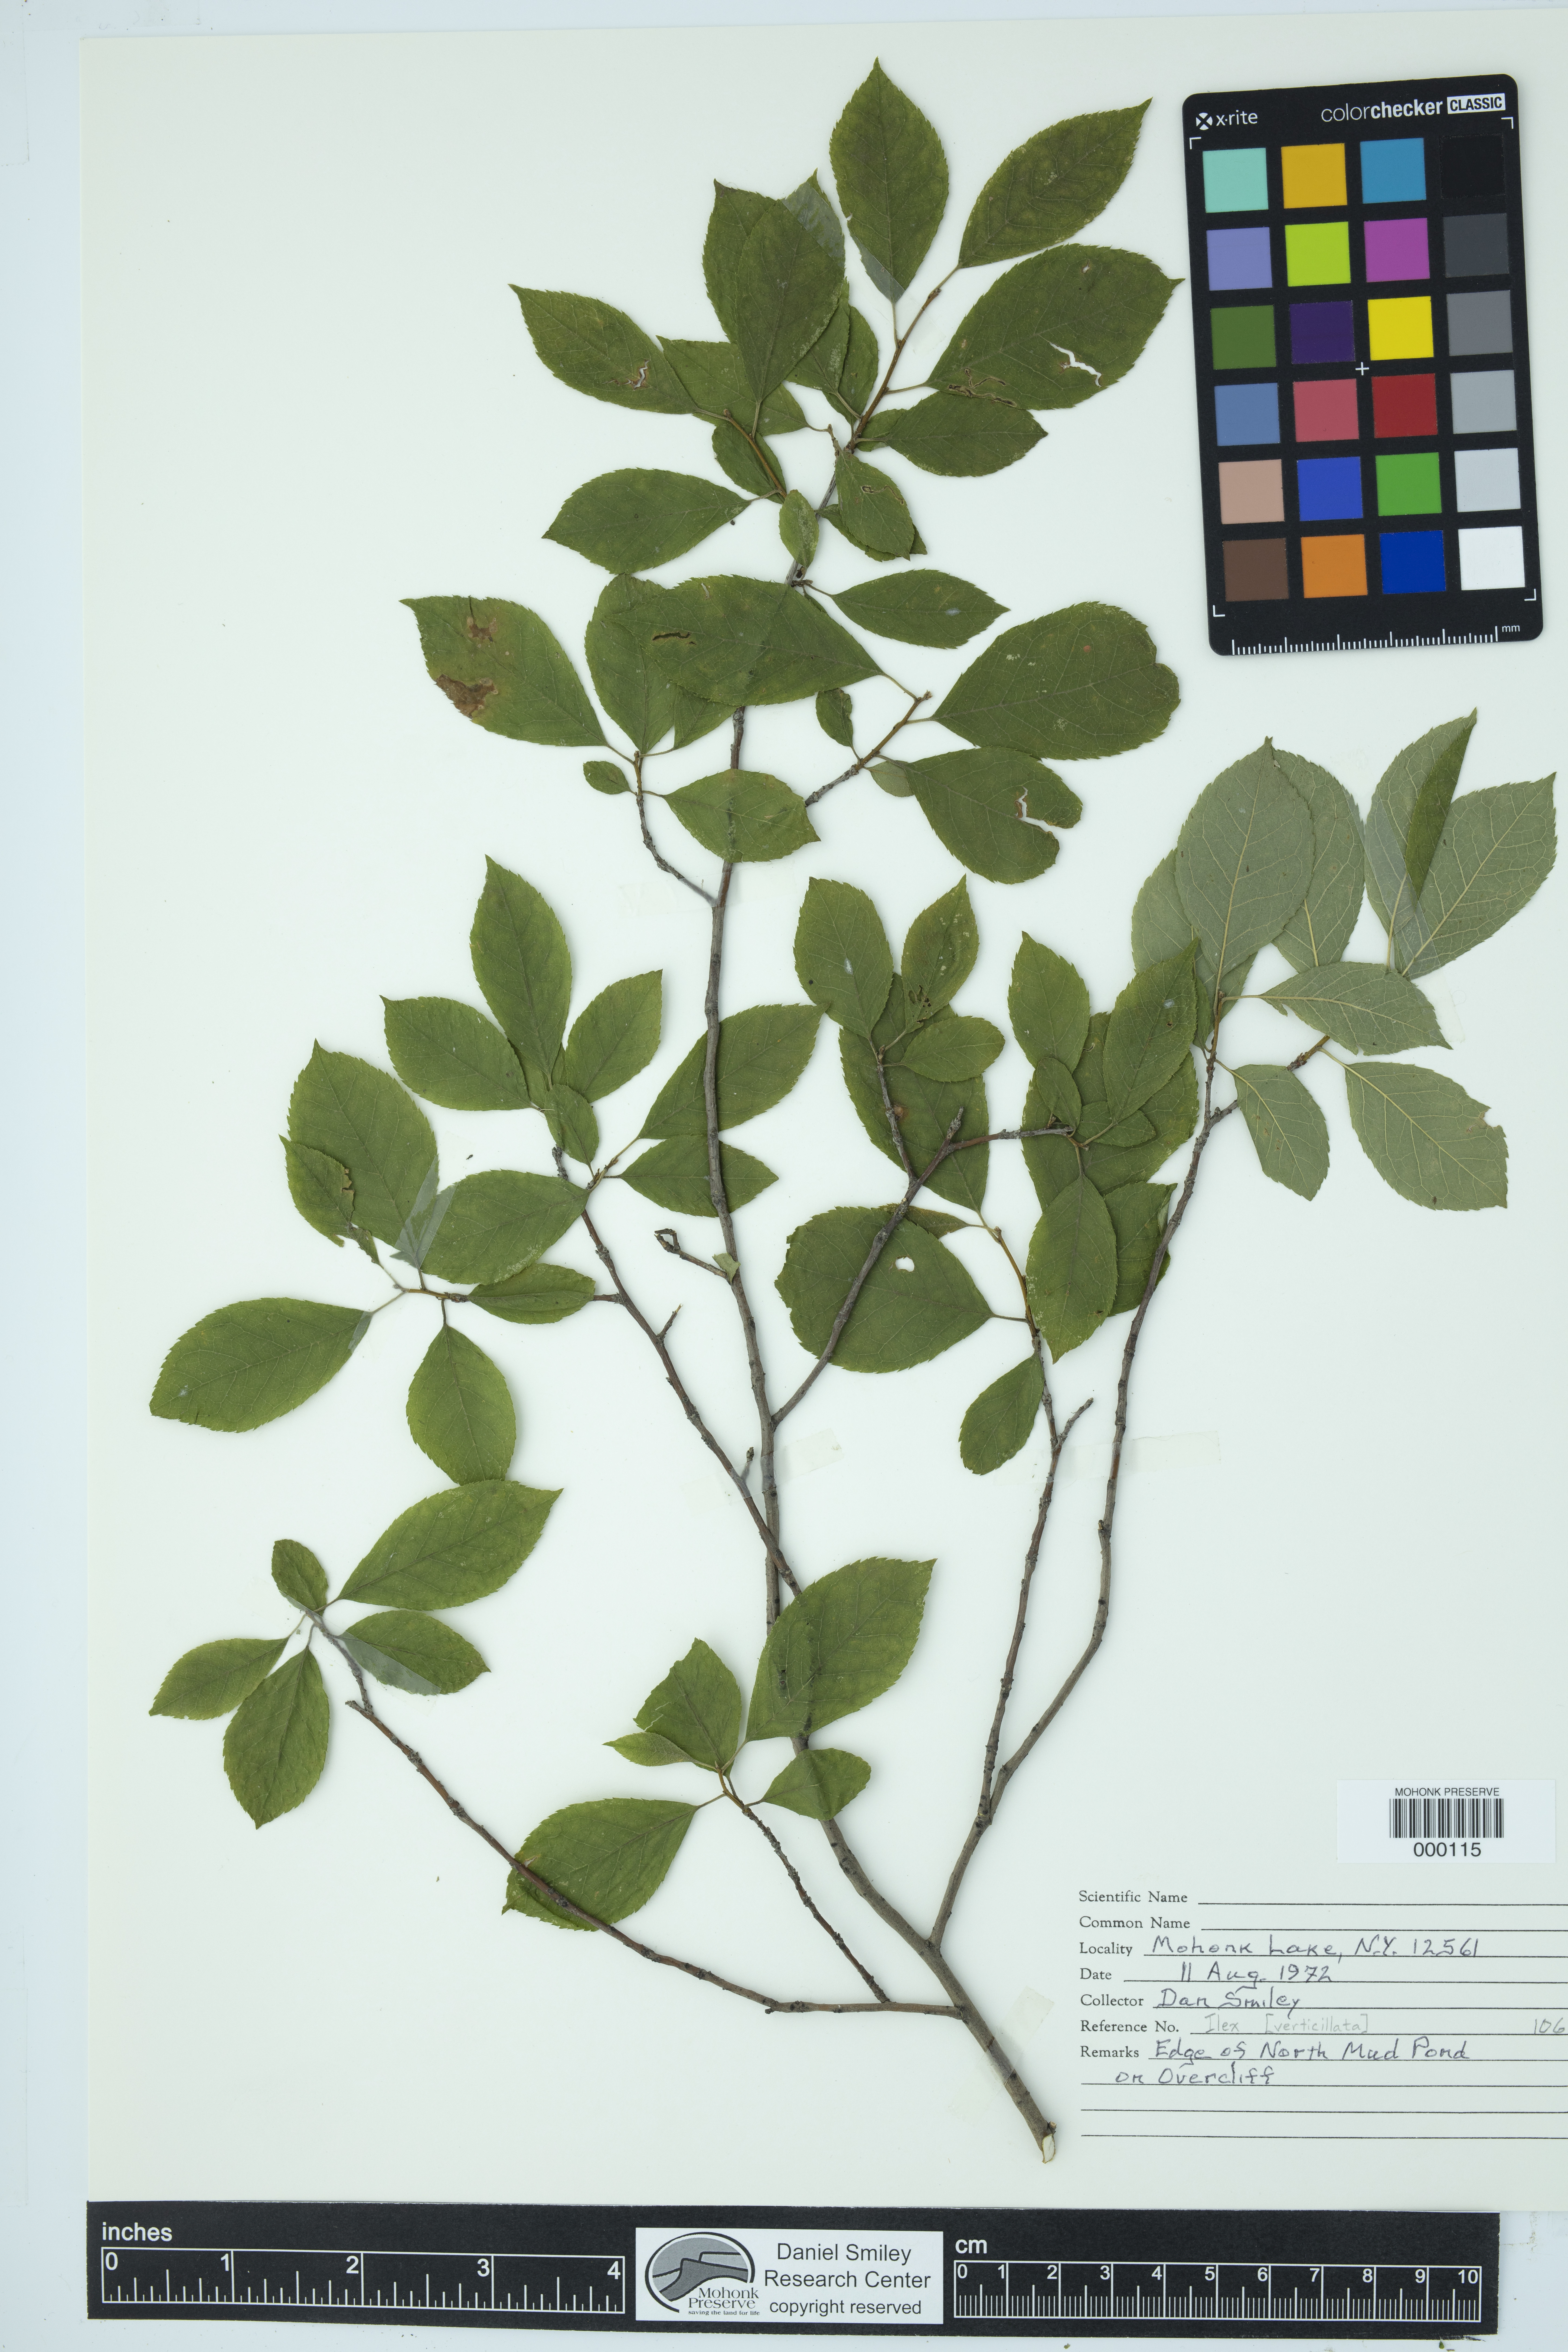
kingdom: Plantae
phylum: Tracheophyta
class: Magnoliopsida
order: Aquifoliales
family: Aquifoliaceae
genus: Ilex
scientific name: Ilex verticillata
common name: Virginia winterberry
